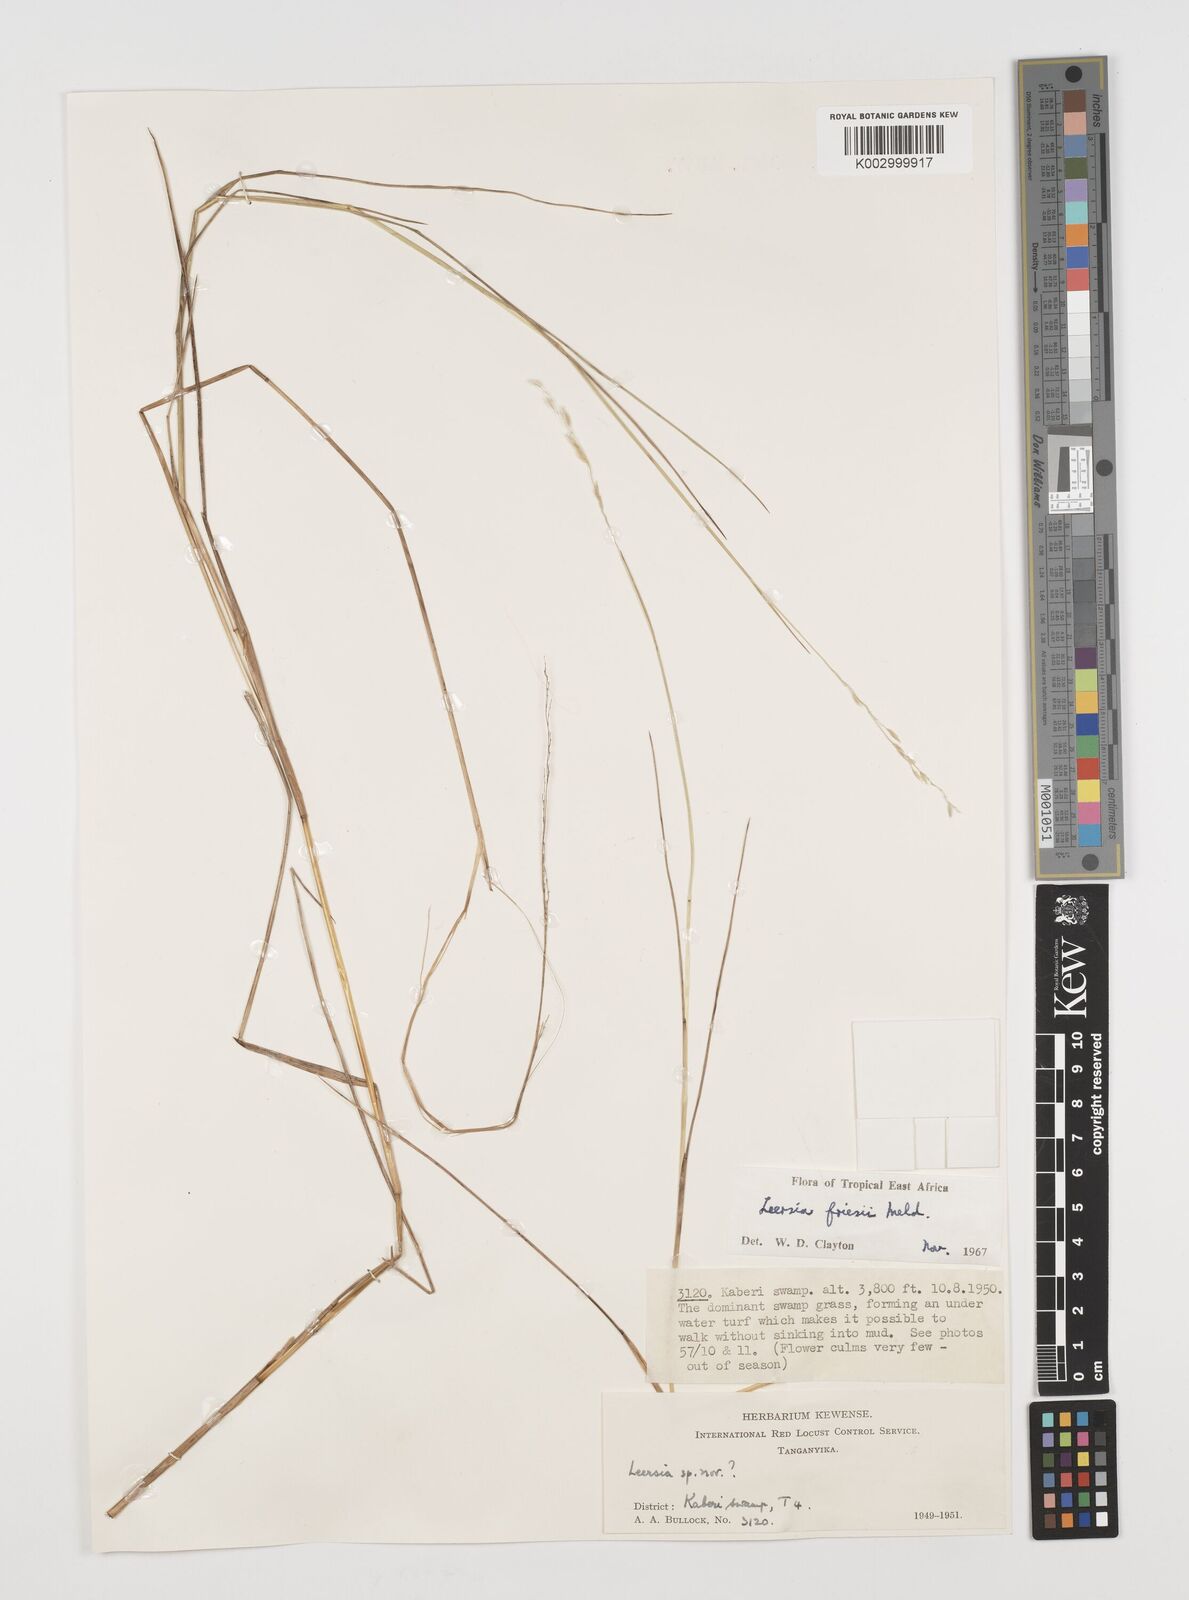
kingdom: Plantae
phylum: Tracheophyta
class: Liliopsida
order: Poales
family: Poaceae
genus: Leersia
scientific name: Leersia friesii
